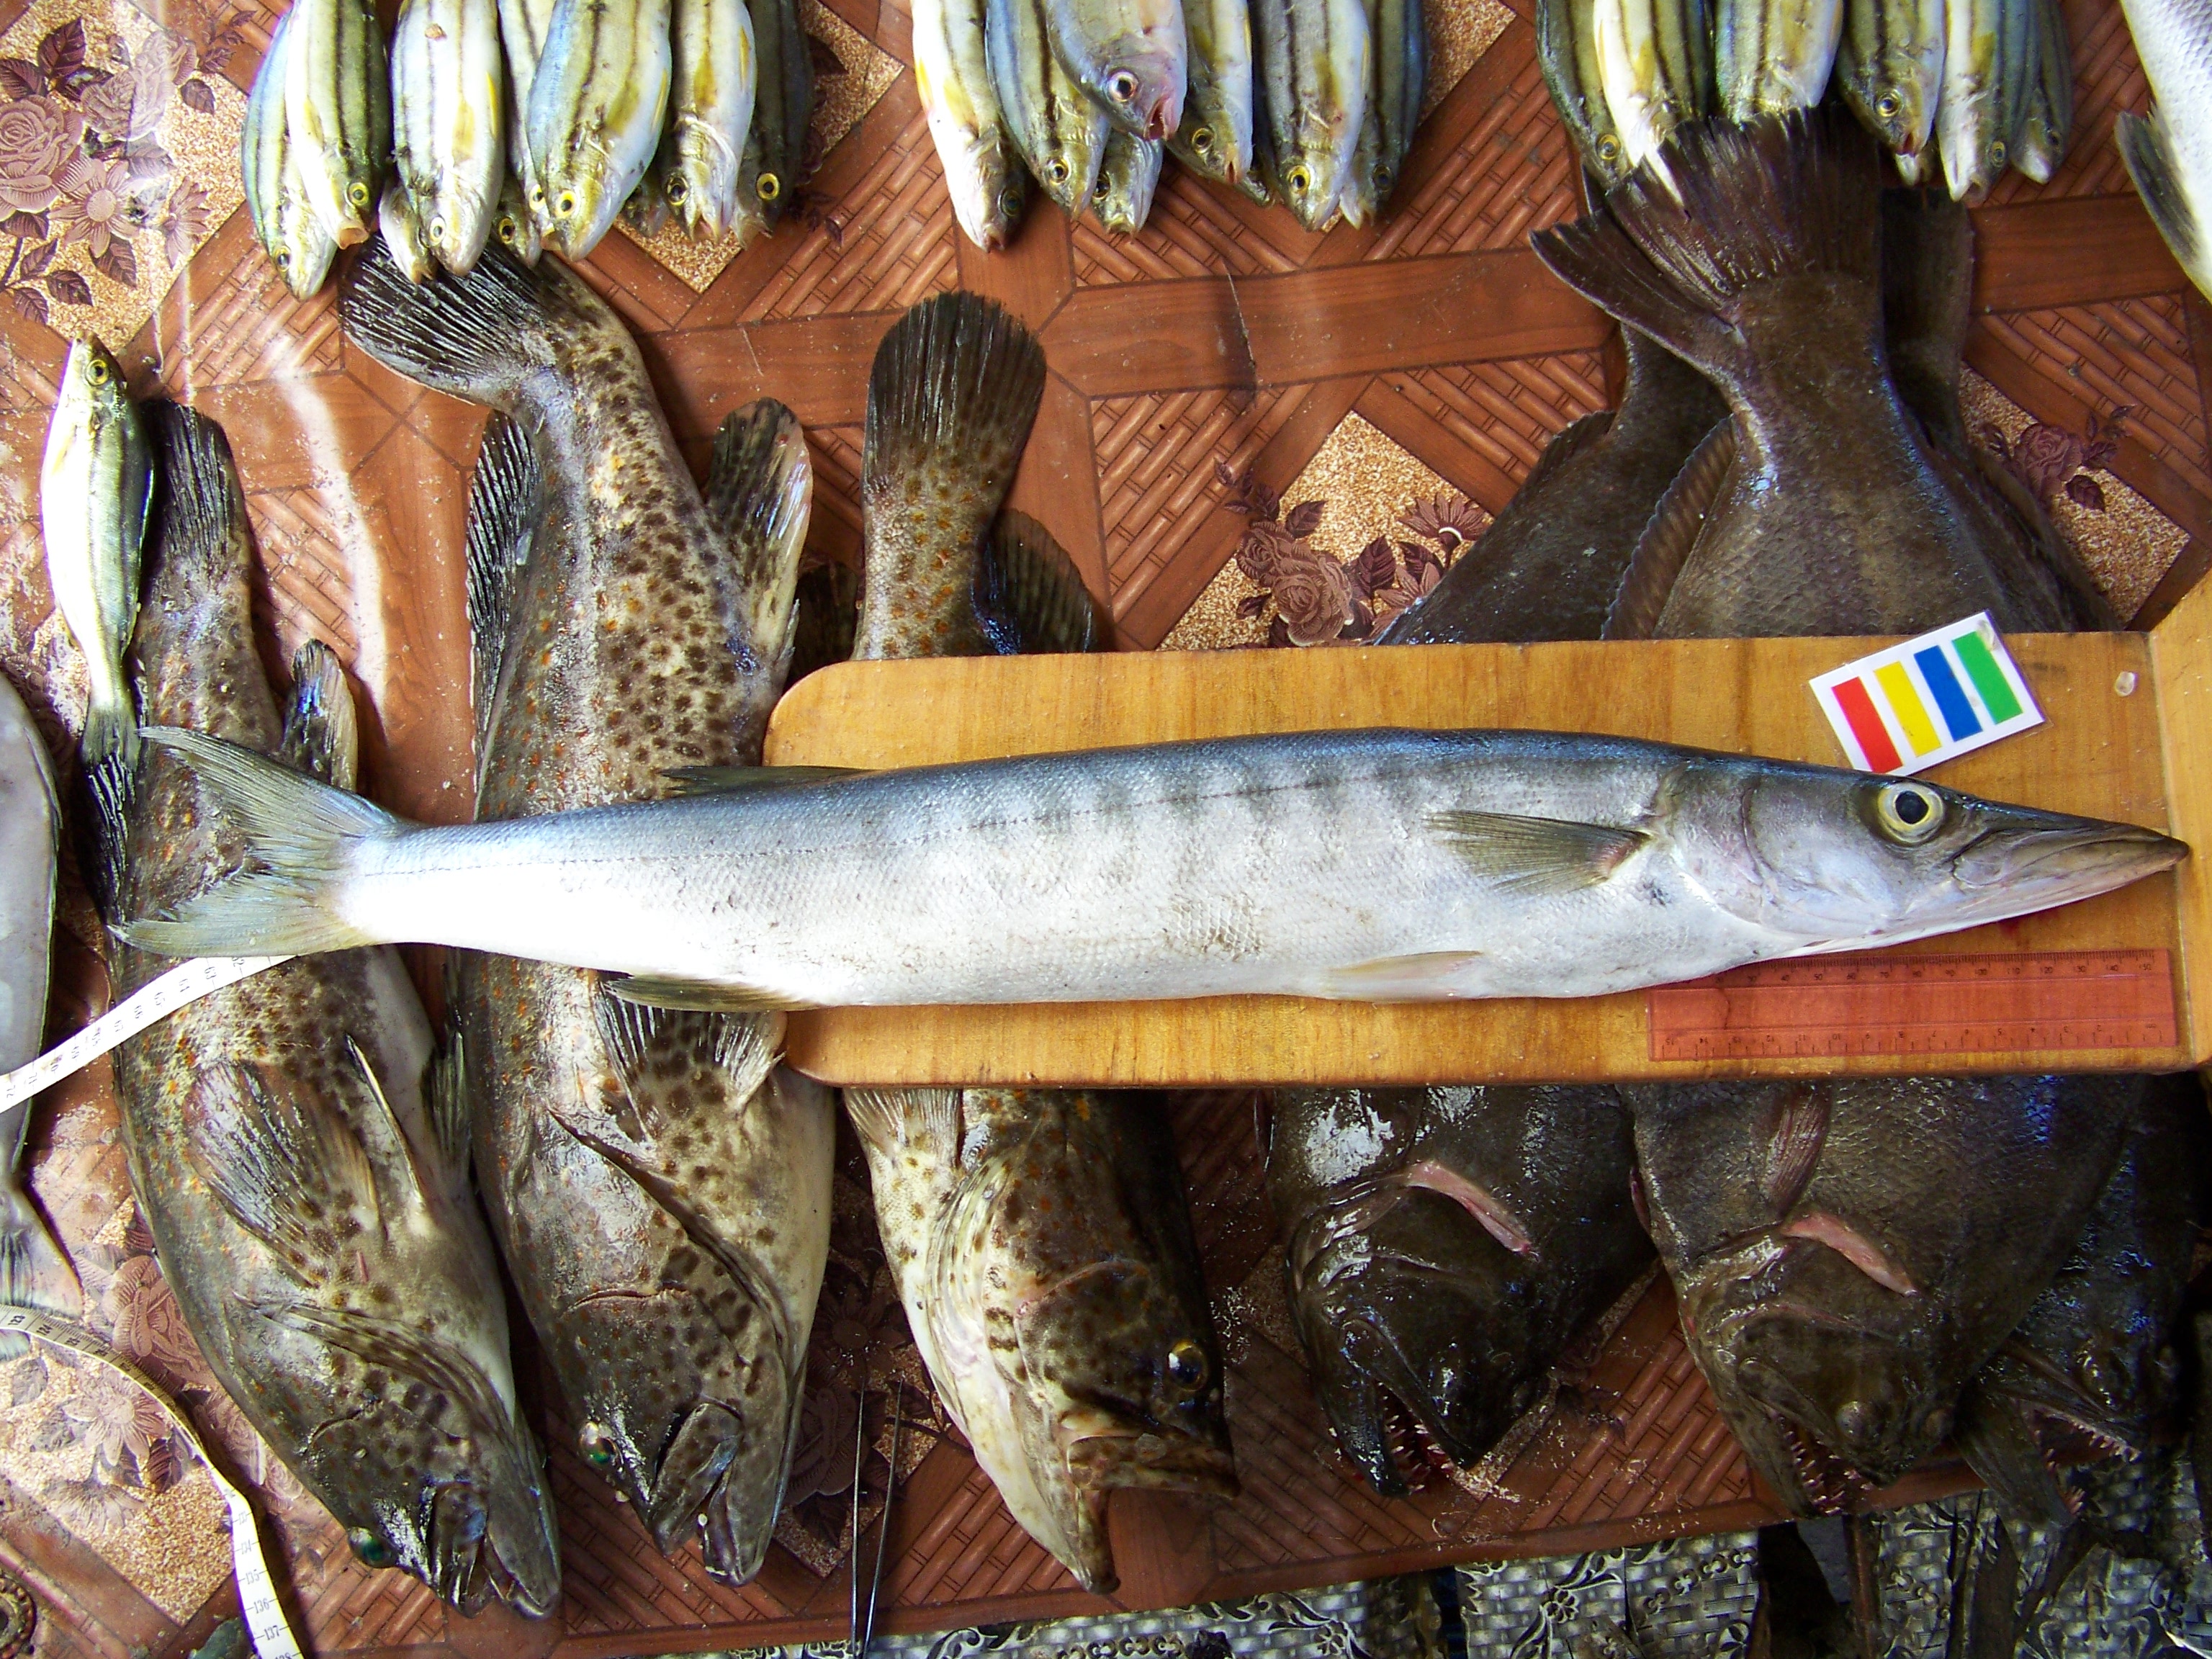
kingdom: Animalia
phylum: Chordata
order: Perciformes
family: Sphyraenidae
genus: Sphyraena
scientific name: Sphyraena putnamae
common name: Sawtooth barracuda
